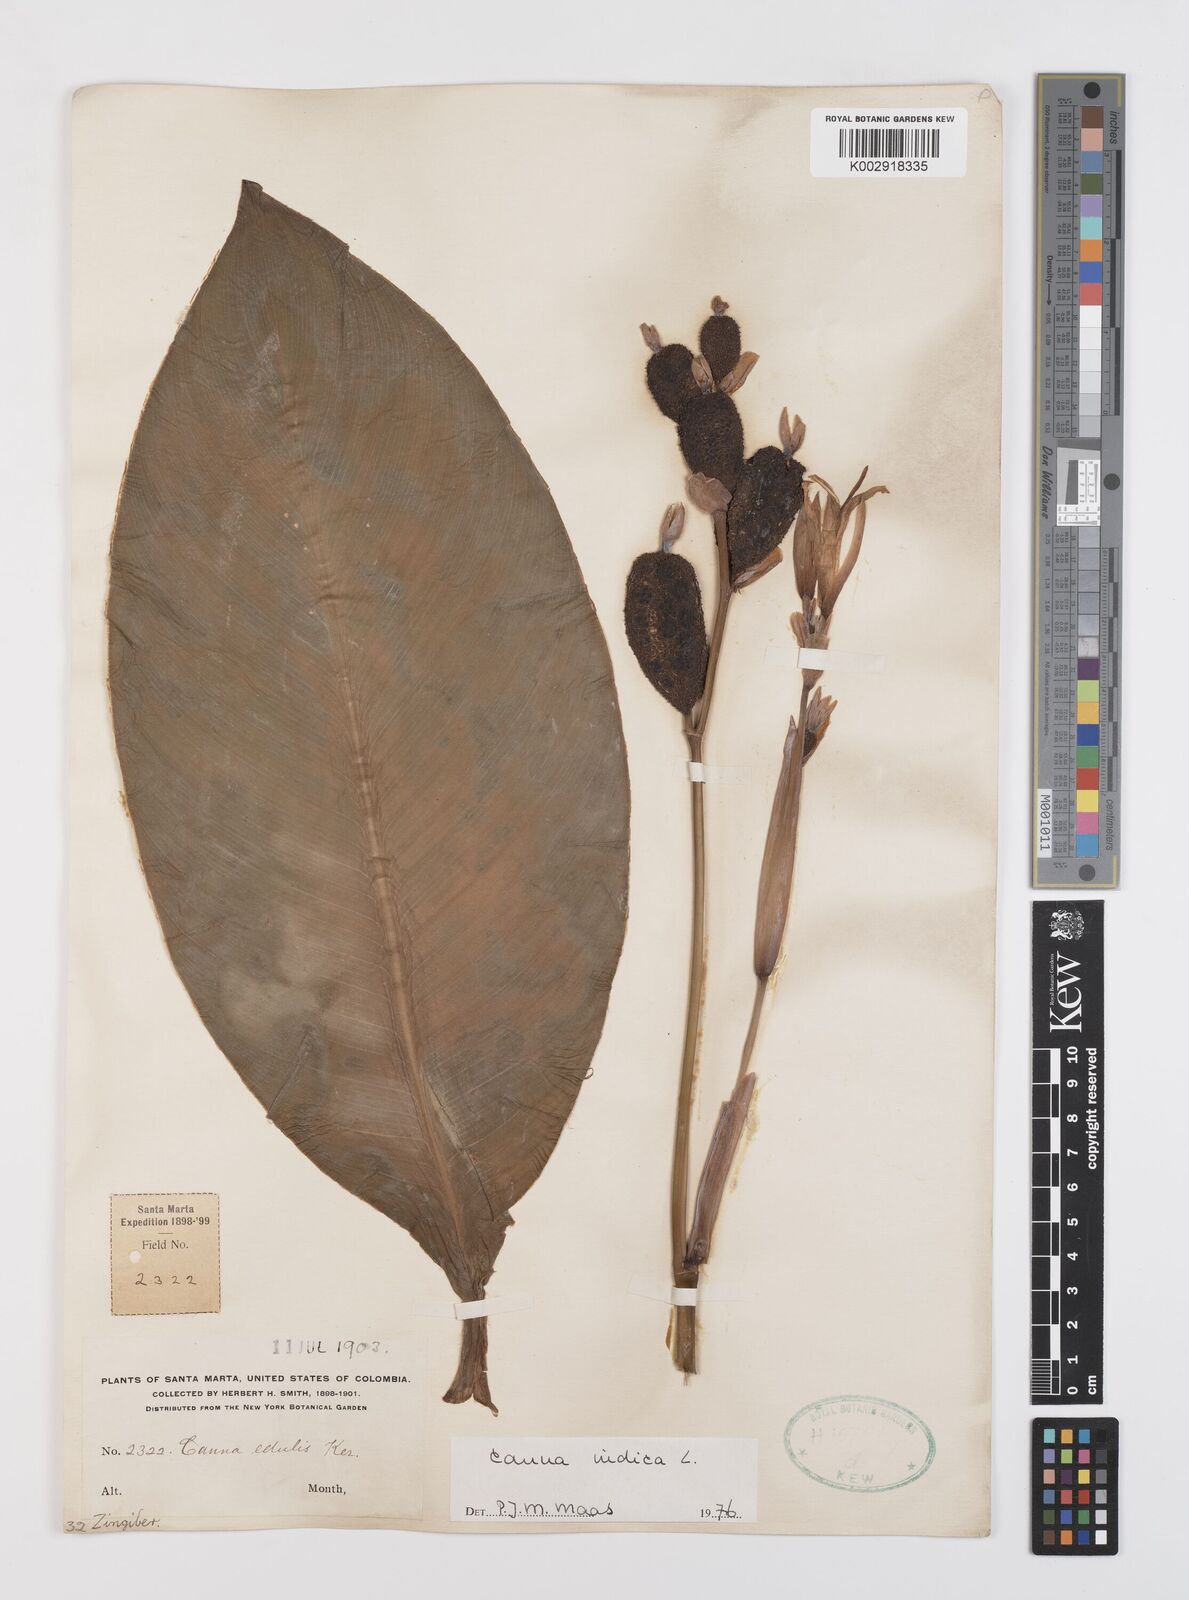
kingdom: Plantae
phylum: Tracheophyta
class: Liliopsida
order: Zingiberales
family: Cannaceae
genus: Canna
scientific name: Canna indica
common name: Indian shot
